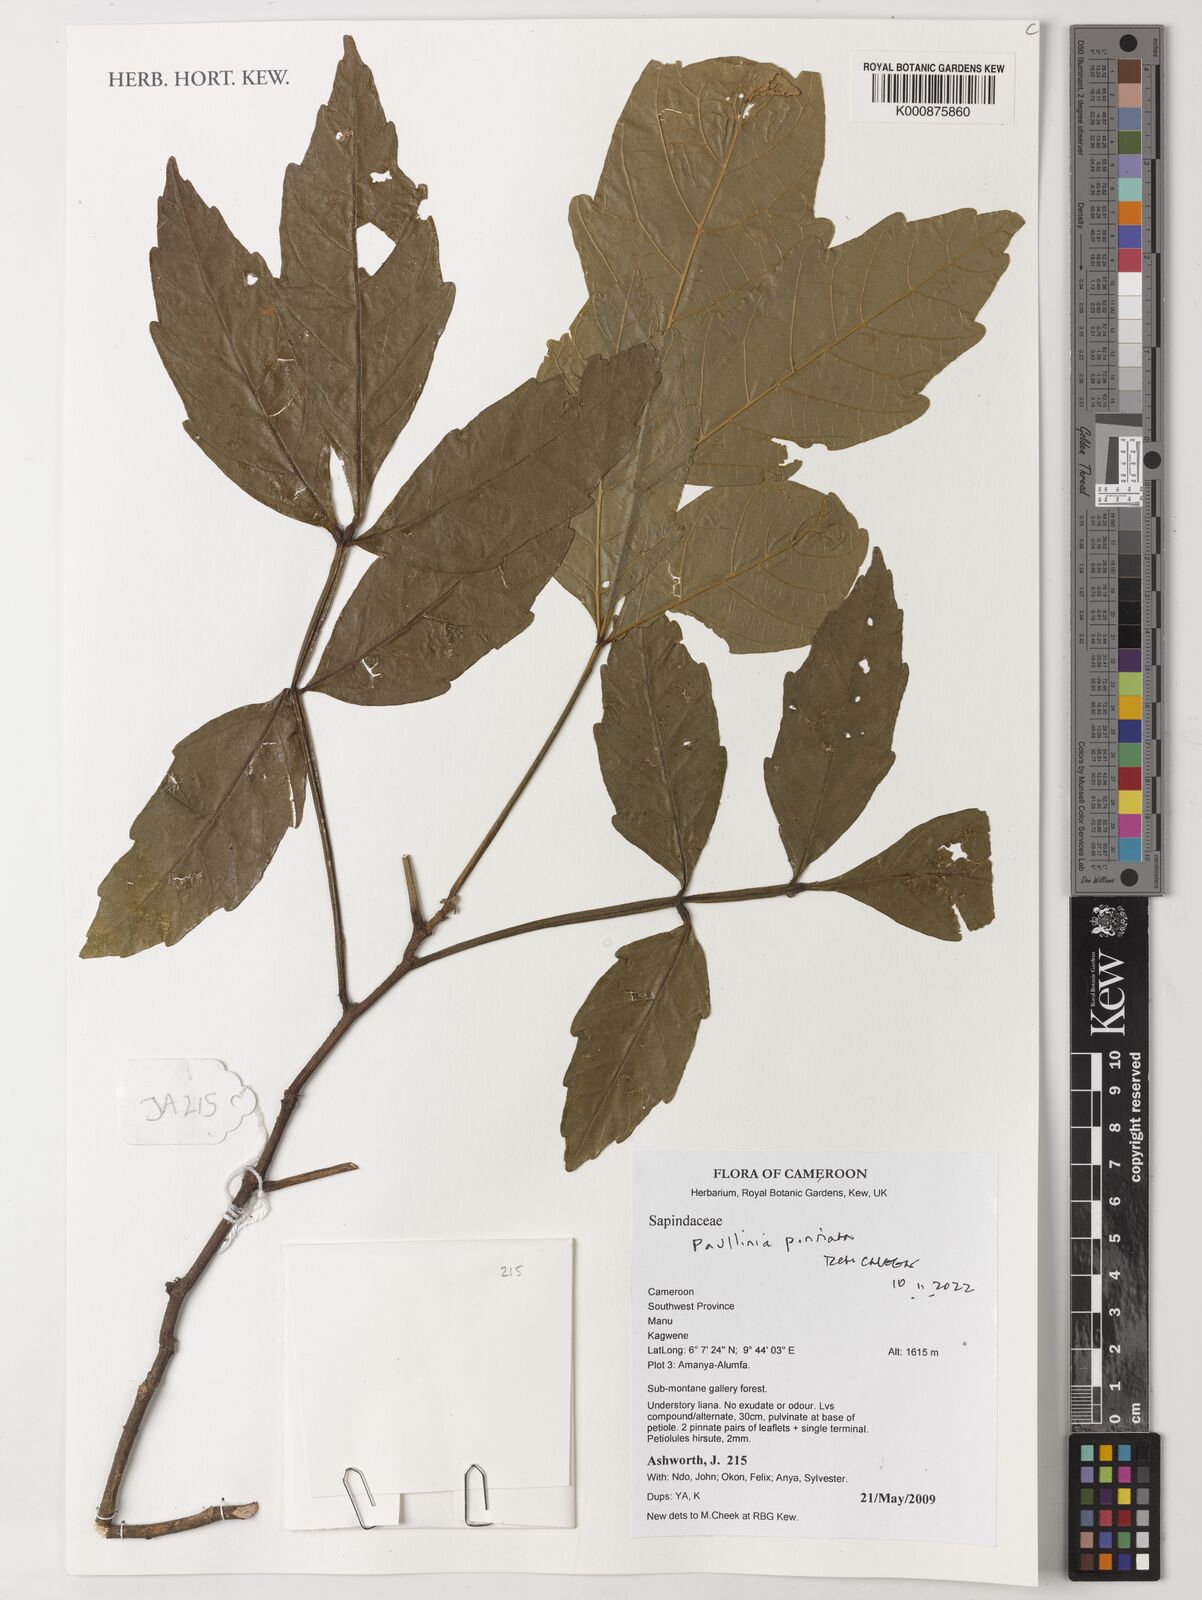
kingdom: Plantae
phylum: Tracheophyta
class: Magnoliopsida
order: Sapindales
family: Sapindaceae
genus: Paullinia
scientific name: Paullinia pinnata
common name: Barbasco
